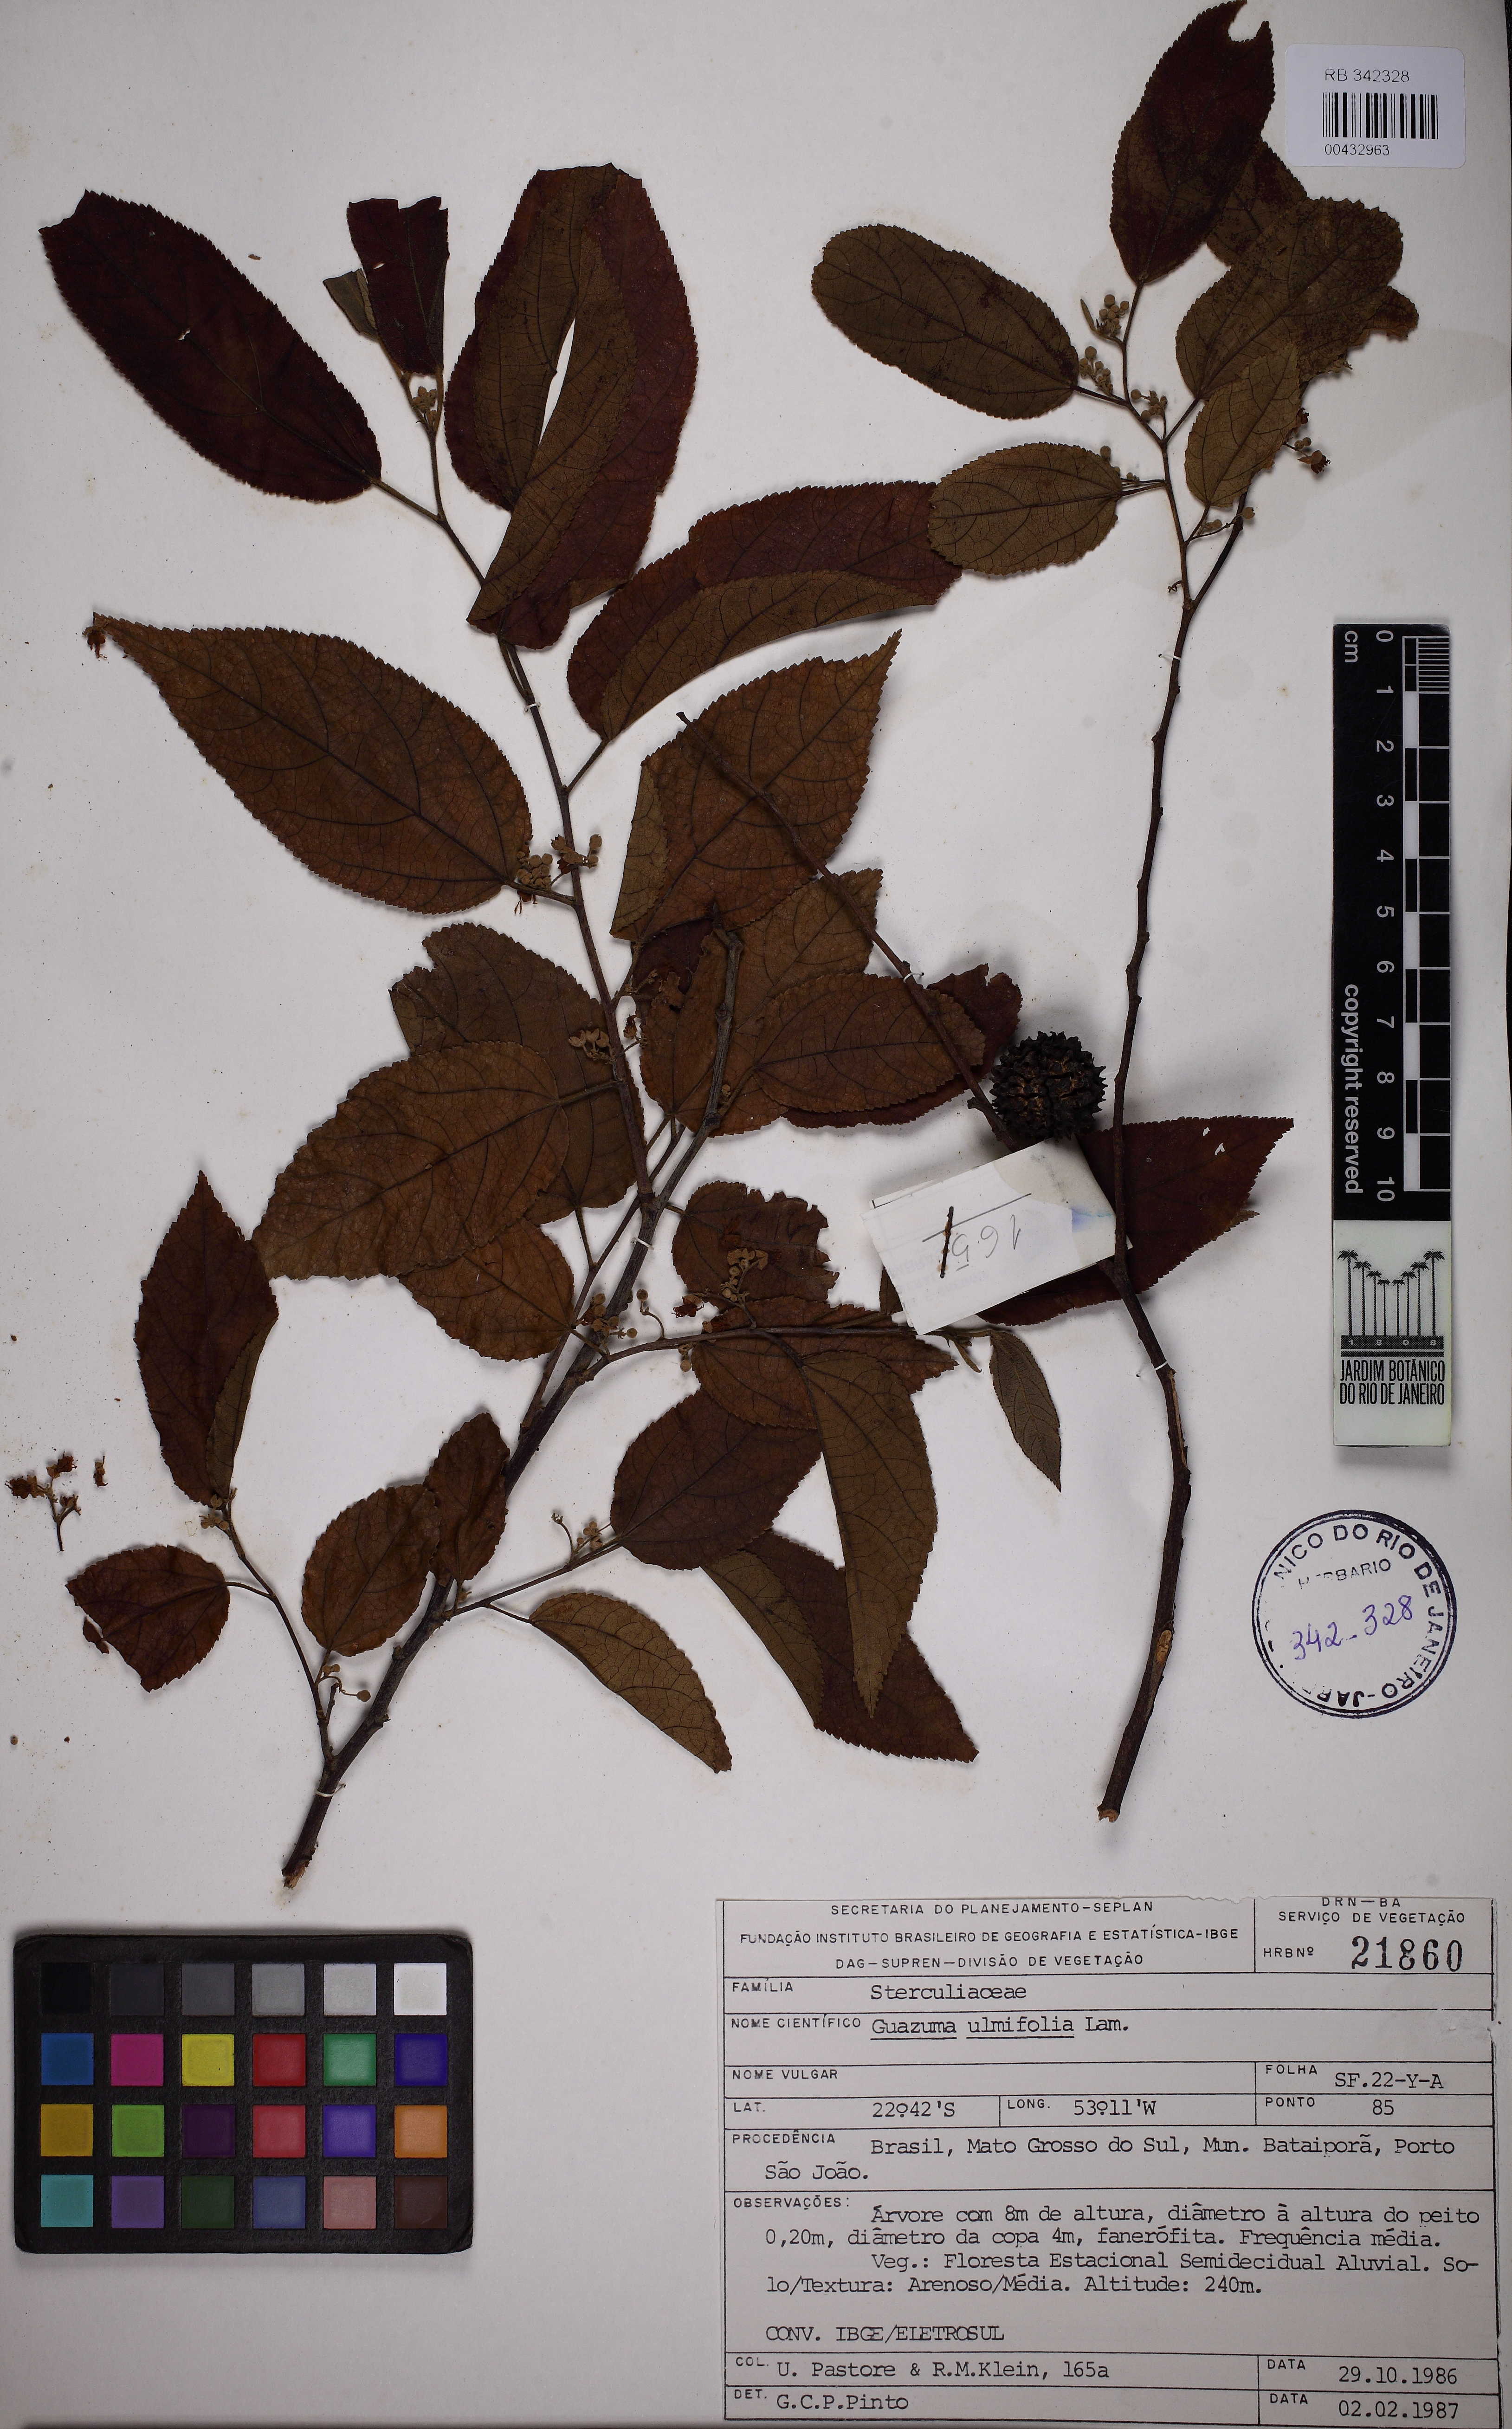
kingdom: Plantae
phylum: Tracheophyta
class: Magnoliopsida
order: Malvales
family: Malvaceae
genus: Guazuma
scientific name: Guazuma ulmifolia
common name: Bastard-cedar
